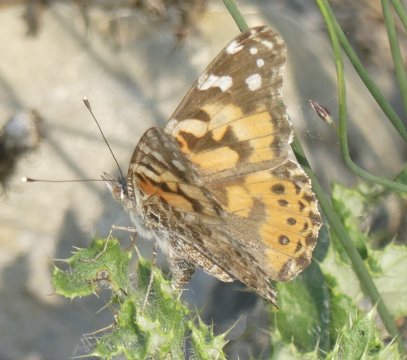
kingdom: Animalia
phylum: Arthropoda
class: Insecta
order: Lepidoptera
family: Nymphalidae
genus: Vanessa
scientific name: Vanessa cardui
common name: Painted Lady
